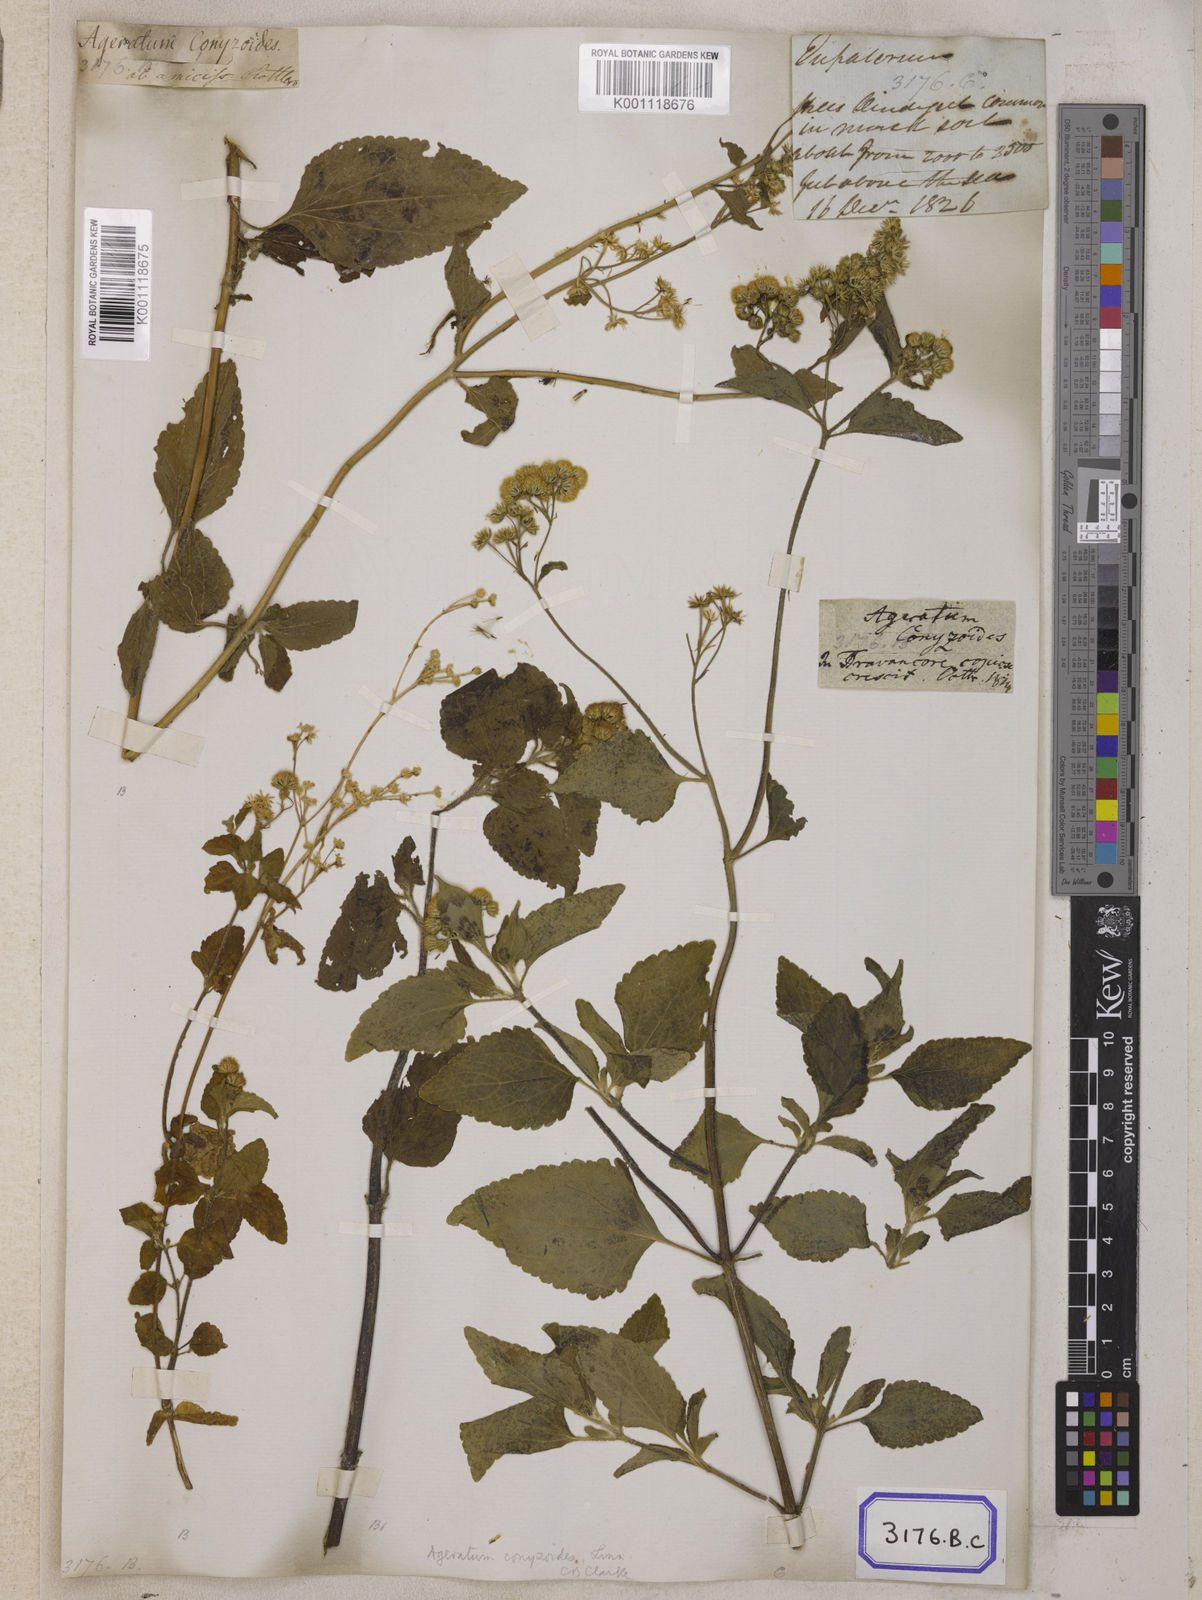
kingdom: Plantae
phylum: Tracheophyta
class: Magnoliopsida
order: Asterales
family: Asteraceae
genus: Ageratum
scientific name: Ageratum conyzoides
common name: Tropical whiteweed
